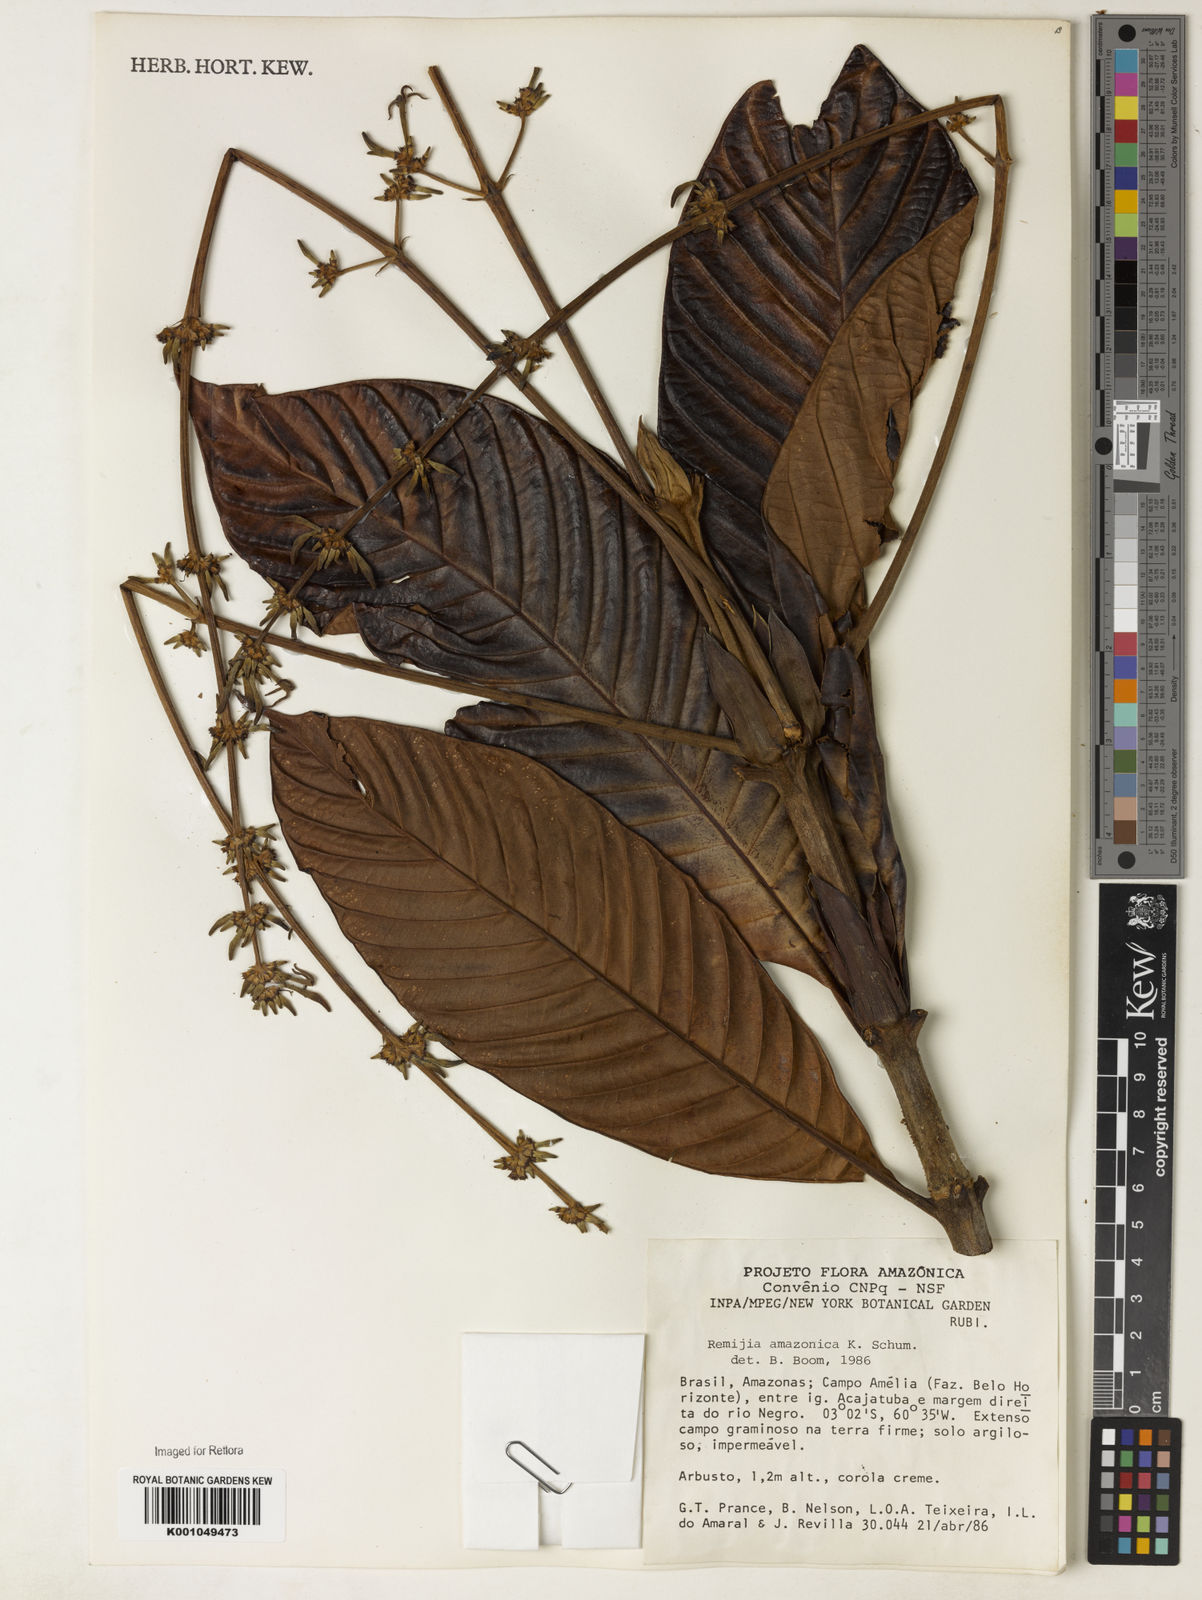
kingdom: Plantae
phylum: Tracheophyta
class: Magnoliopsida
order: Gentianales
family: Rubiaceae
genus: Remijia
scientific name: Remijia amazonica
